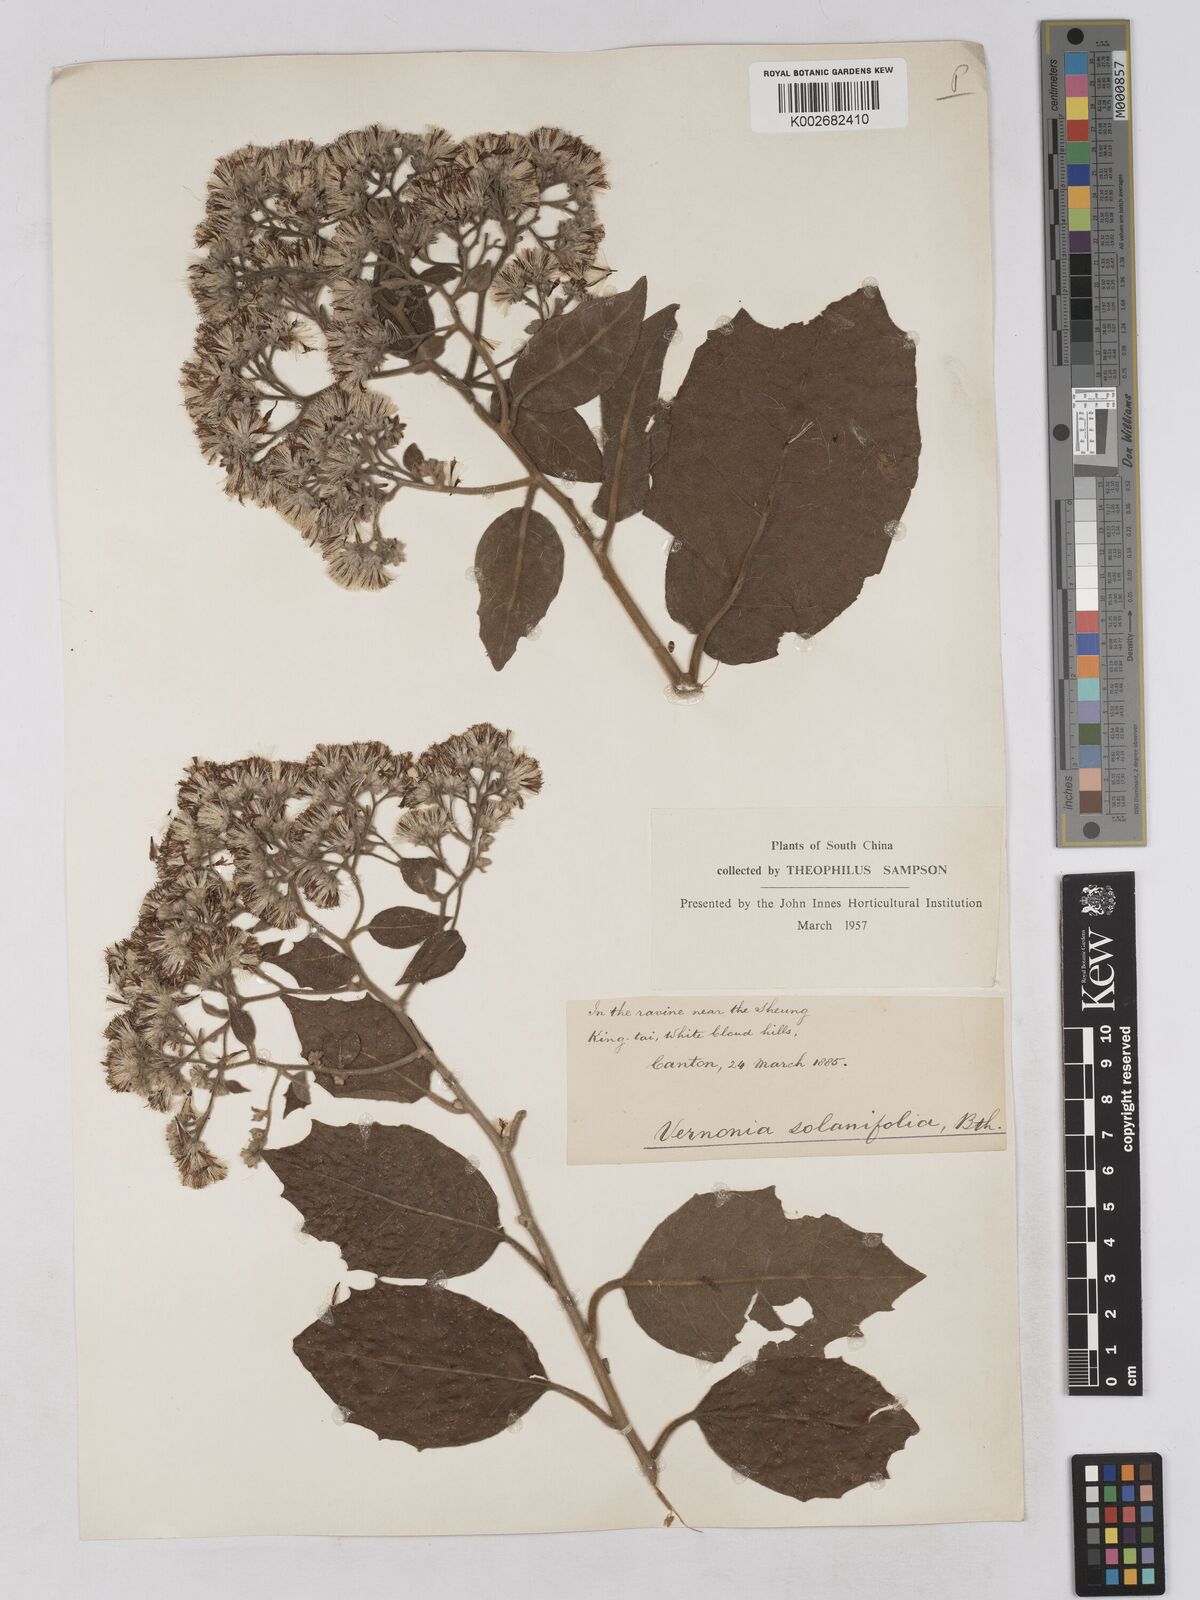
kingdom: Plantae
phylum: Tracheophyta
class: Magnoliopsida
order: Asterales
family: Asteraceae
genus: Strobocalyx
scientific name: Strobocalyx solanifolia
